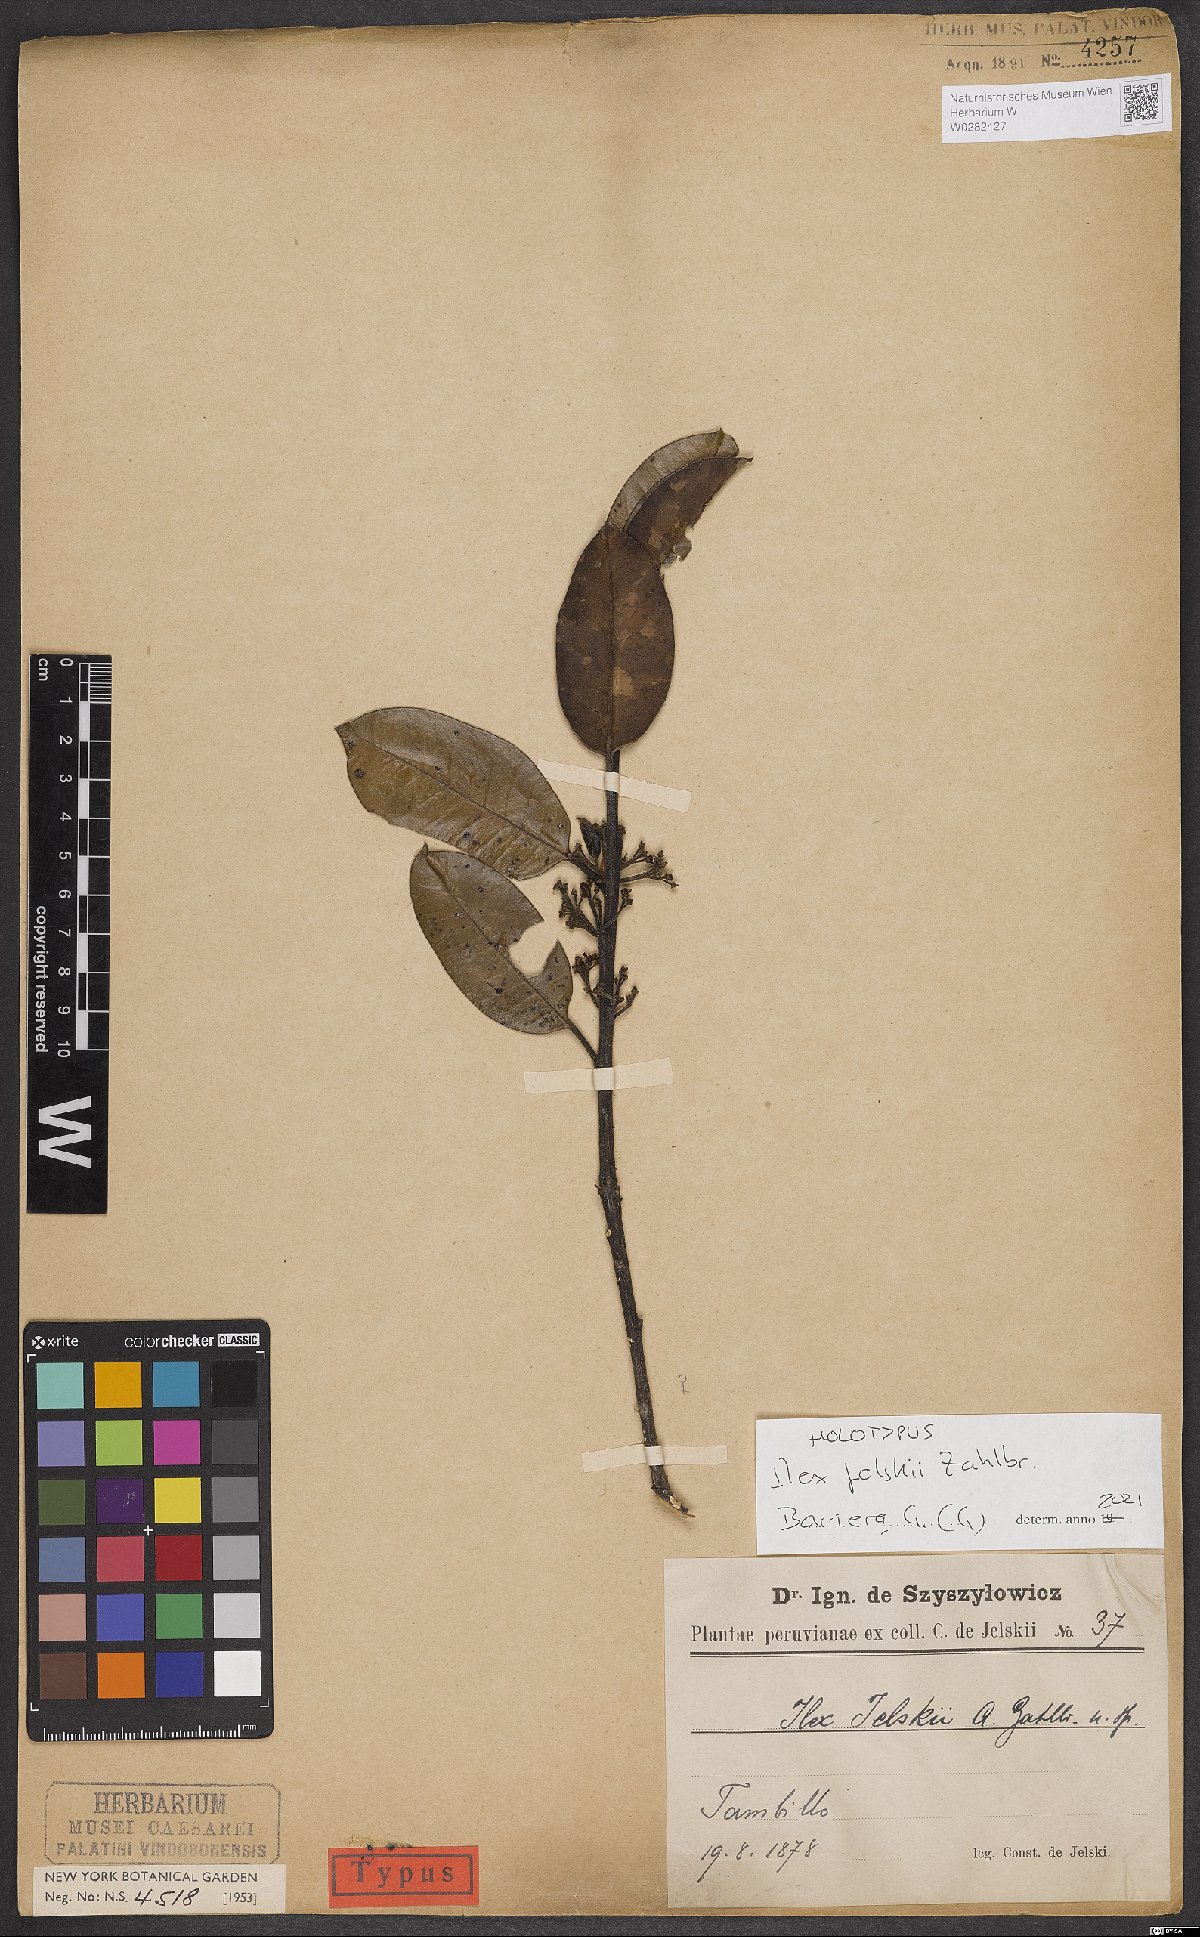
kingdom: Plantae
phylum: Tracheophyta
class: Magnoliopsida
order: Aquifoliales
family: Aquifoliaceae
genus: Ilex
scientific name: Ilex jelskii
